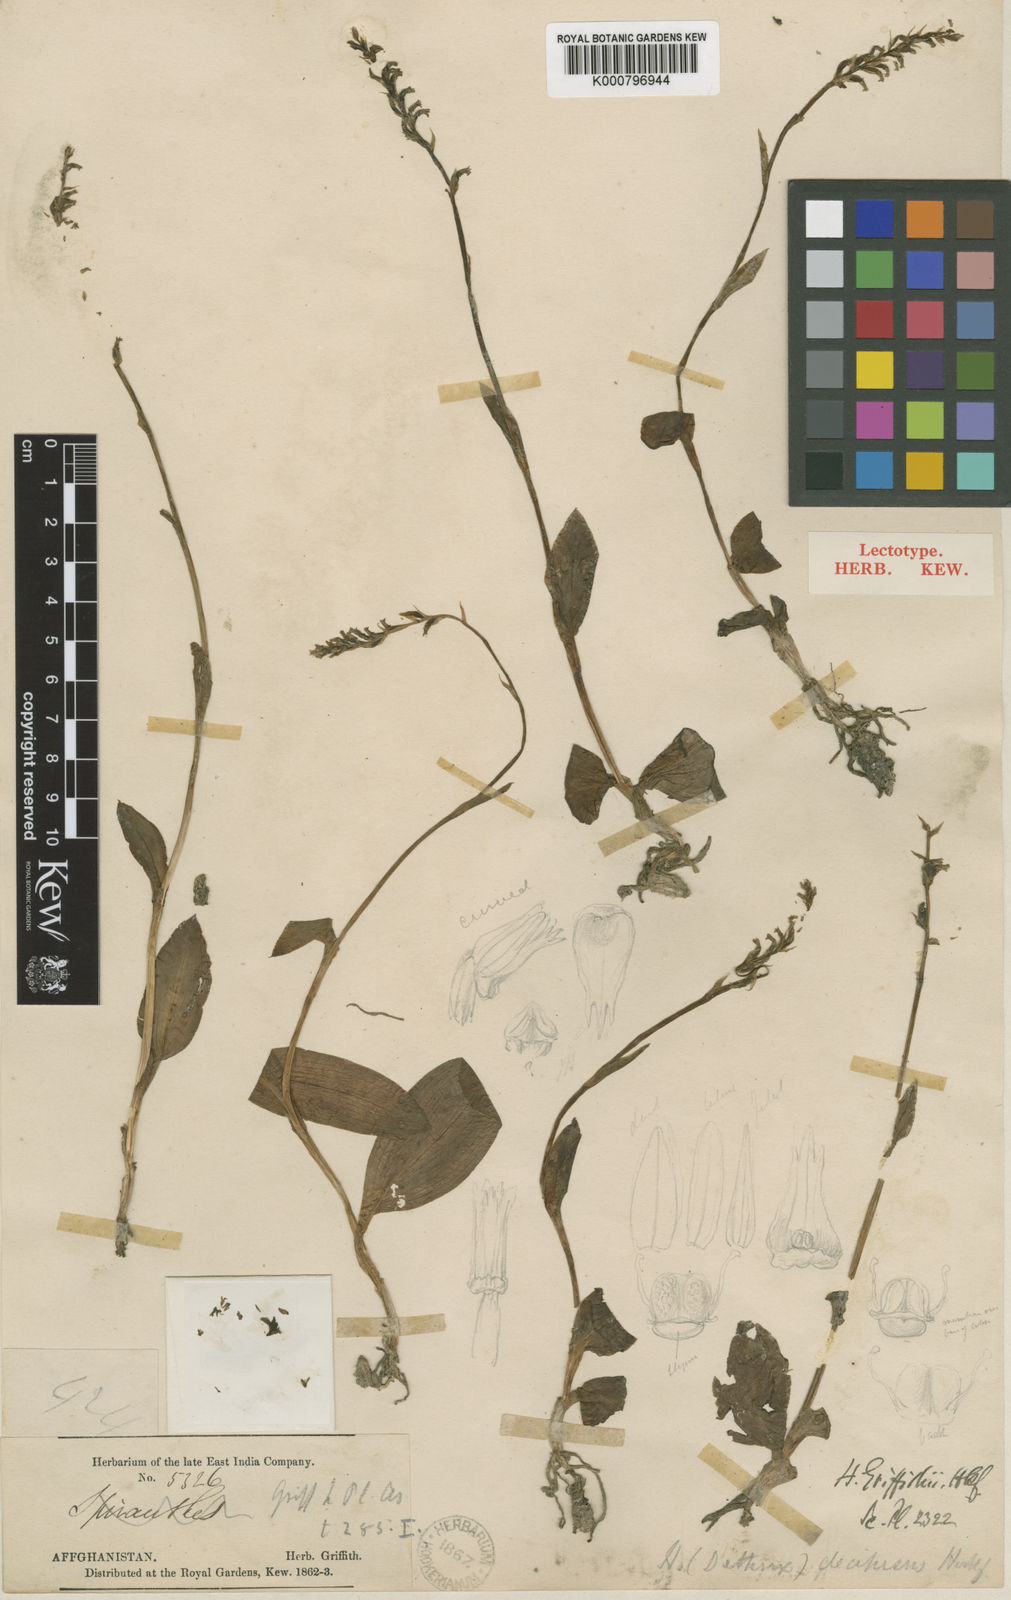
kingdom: Plantae
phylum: Tracheophyta
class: Liliopsida
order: Asparagales
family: Orchidaceae
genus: Gennaria
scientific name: Gennaria griffithii
